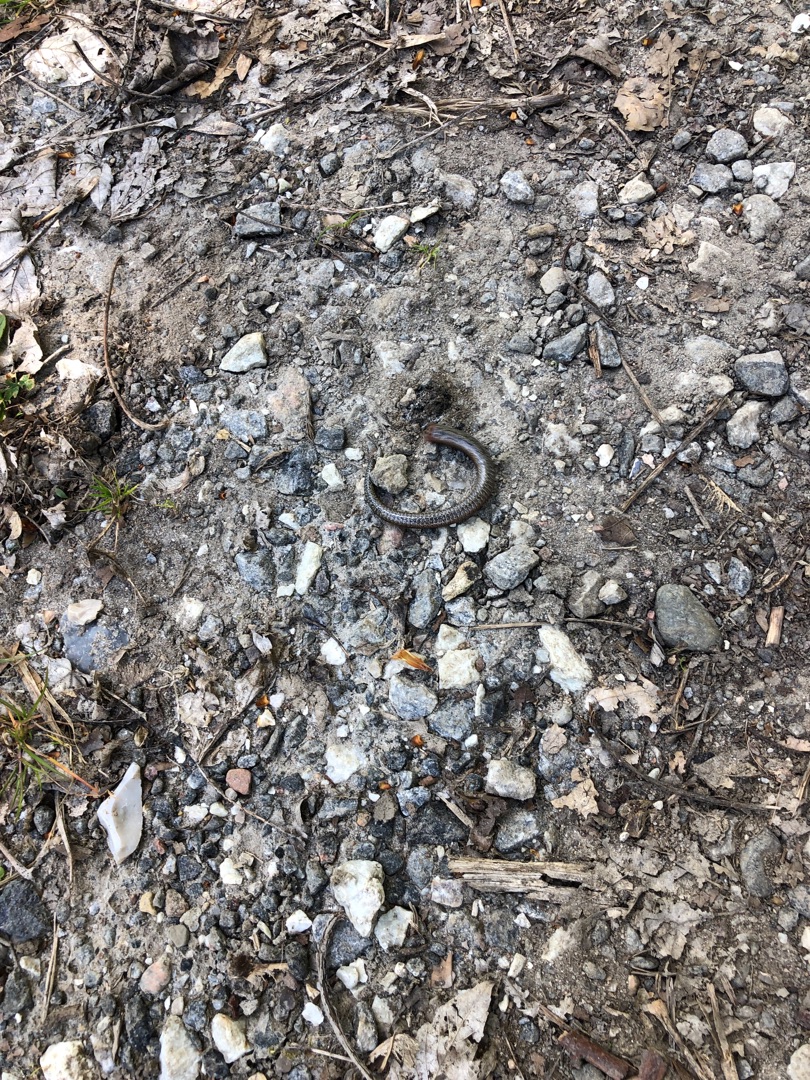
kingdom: Animalia
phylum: Chordata
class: Squamata
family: Anguidae
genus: Anguis
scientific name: Anguis fragilis
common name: Stålorm
